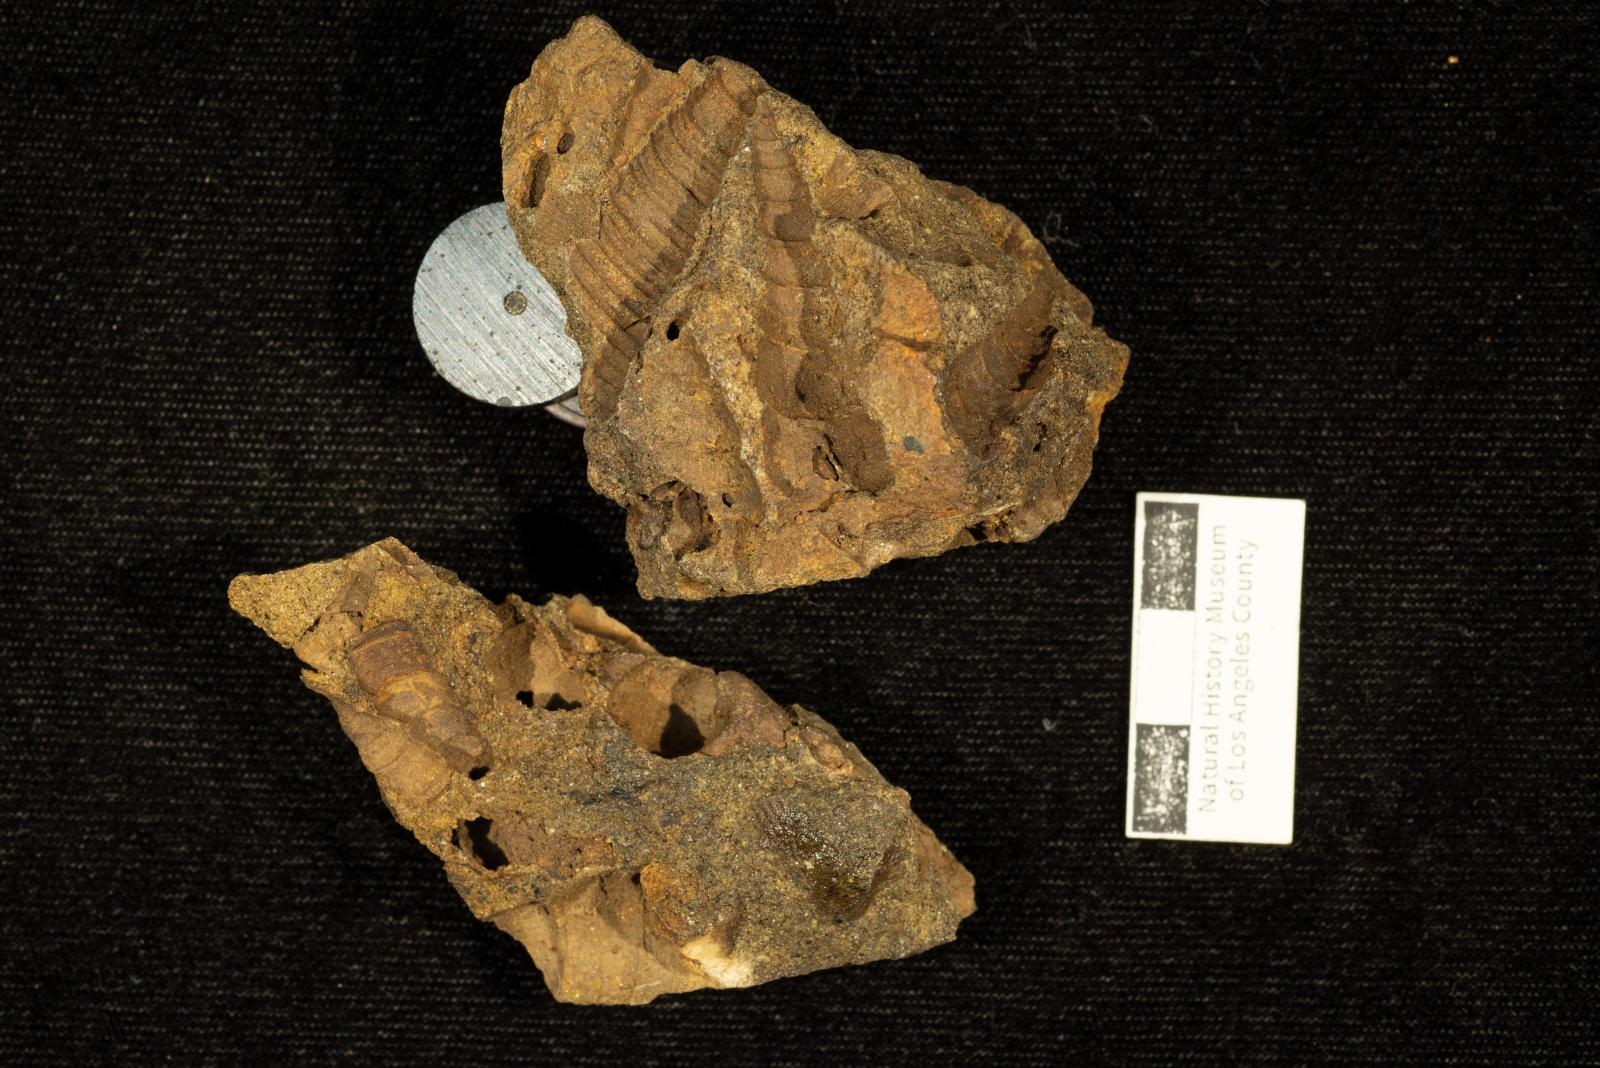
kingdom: Animalia
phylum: Mollusca
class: Gastropoda
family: Turritellidae
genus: Turritella
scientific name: Turritella chaneyi
